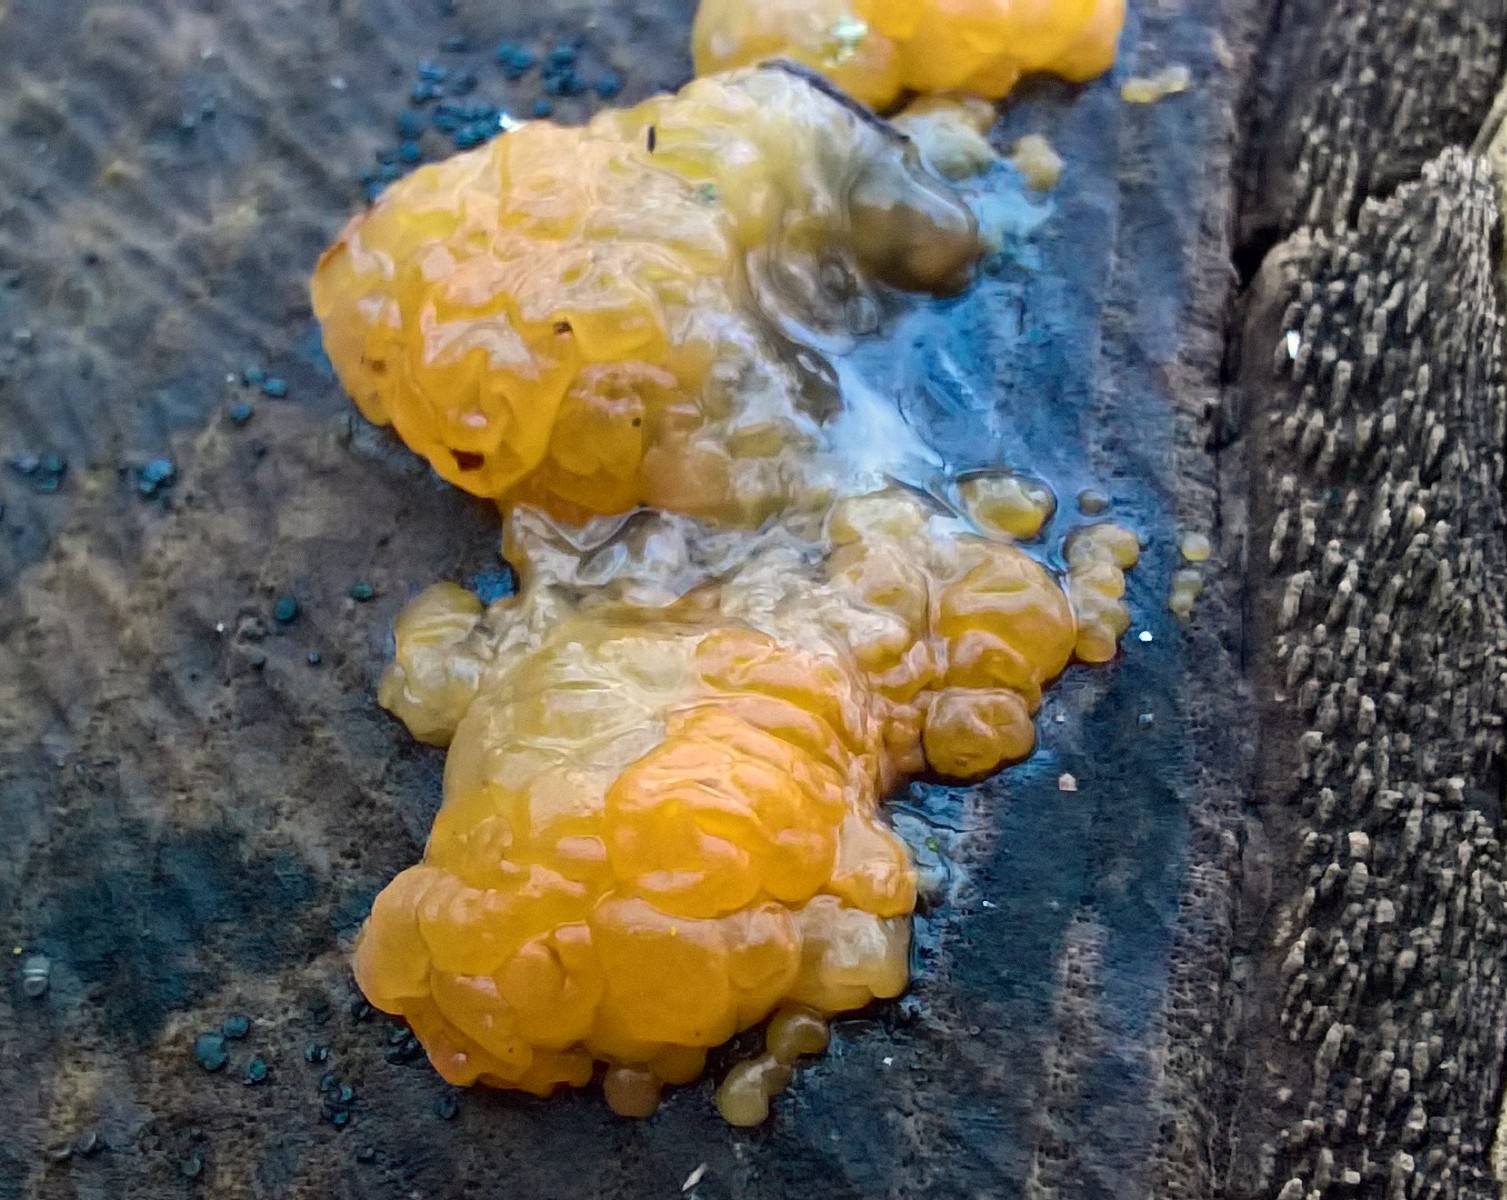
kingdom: Fungi
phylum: Basidiomycota
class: Tremellomycetes
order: Tremellales
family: Tremellaceae
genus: Tremella
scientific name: Tremella mesenterica
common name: gul bævresvamp
